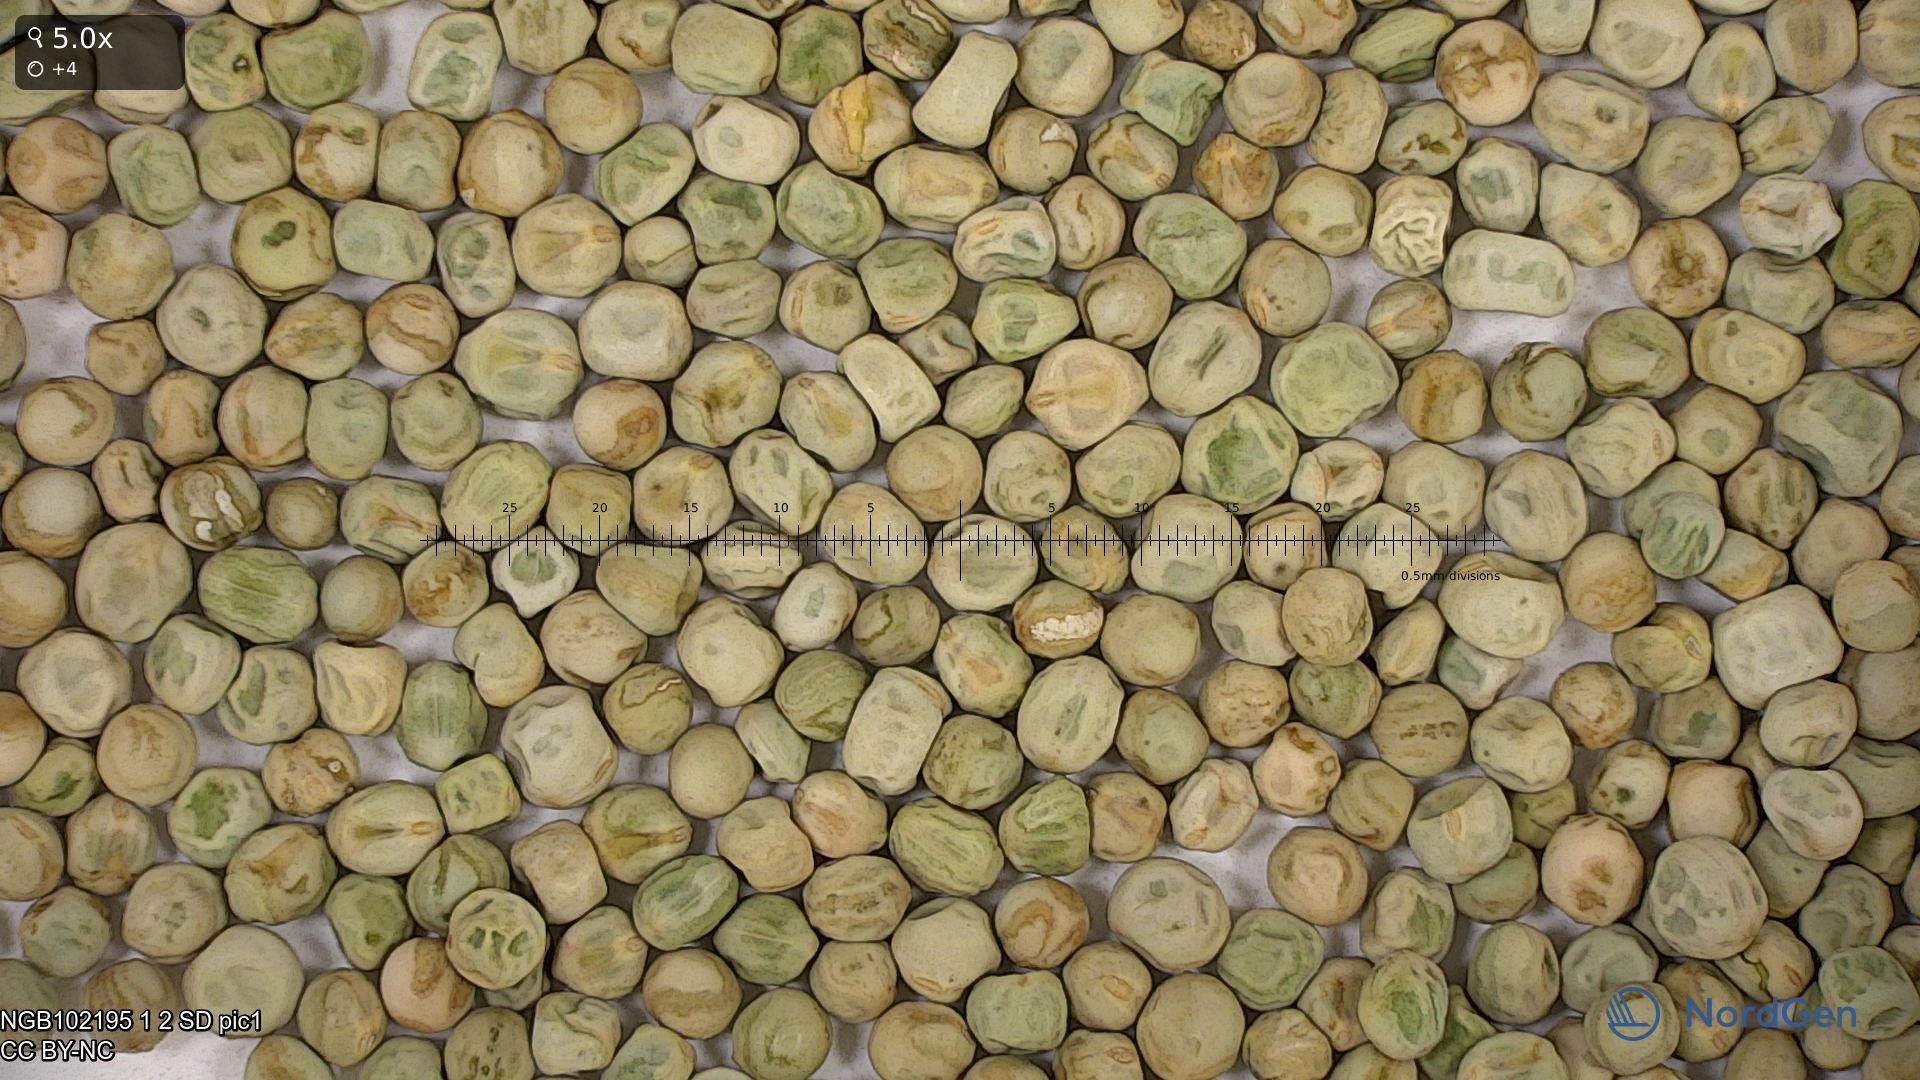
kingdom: Plantae
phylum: Tracheophyta
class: Magnoliopsida
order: Fabales
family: Fabaceae
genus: Lathyrus
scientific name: Lathyrus oleraceus
